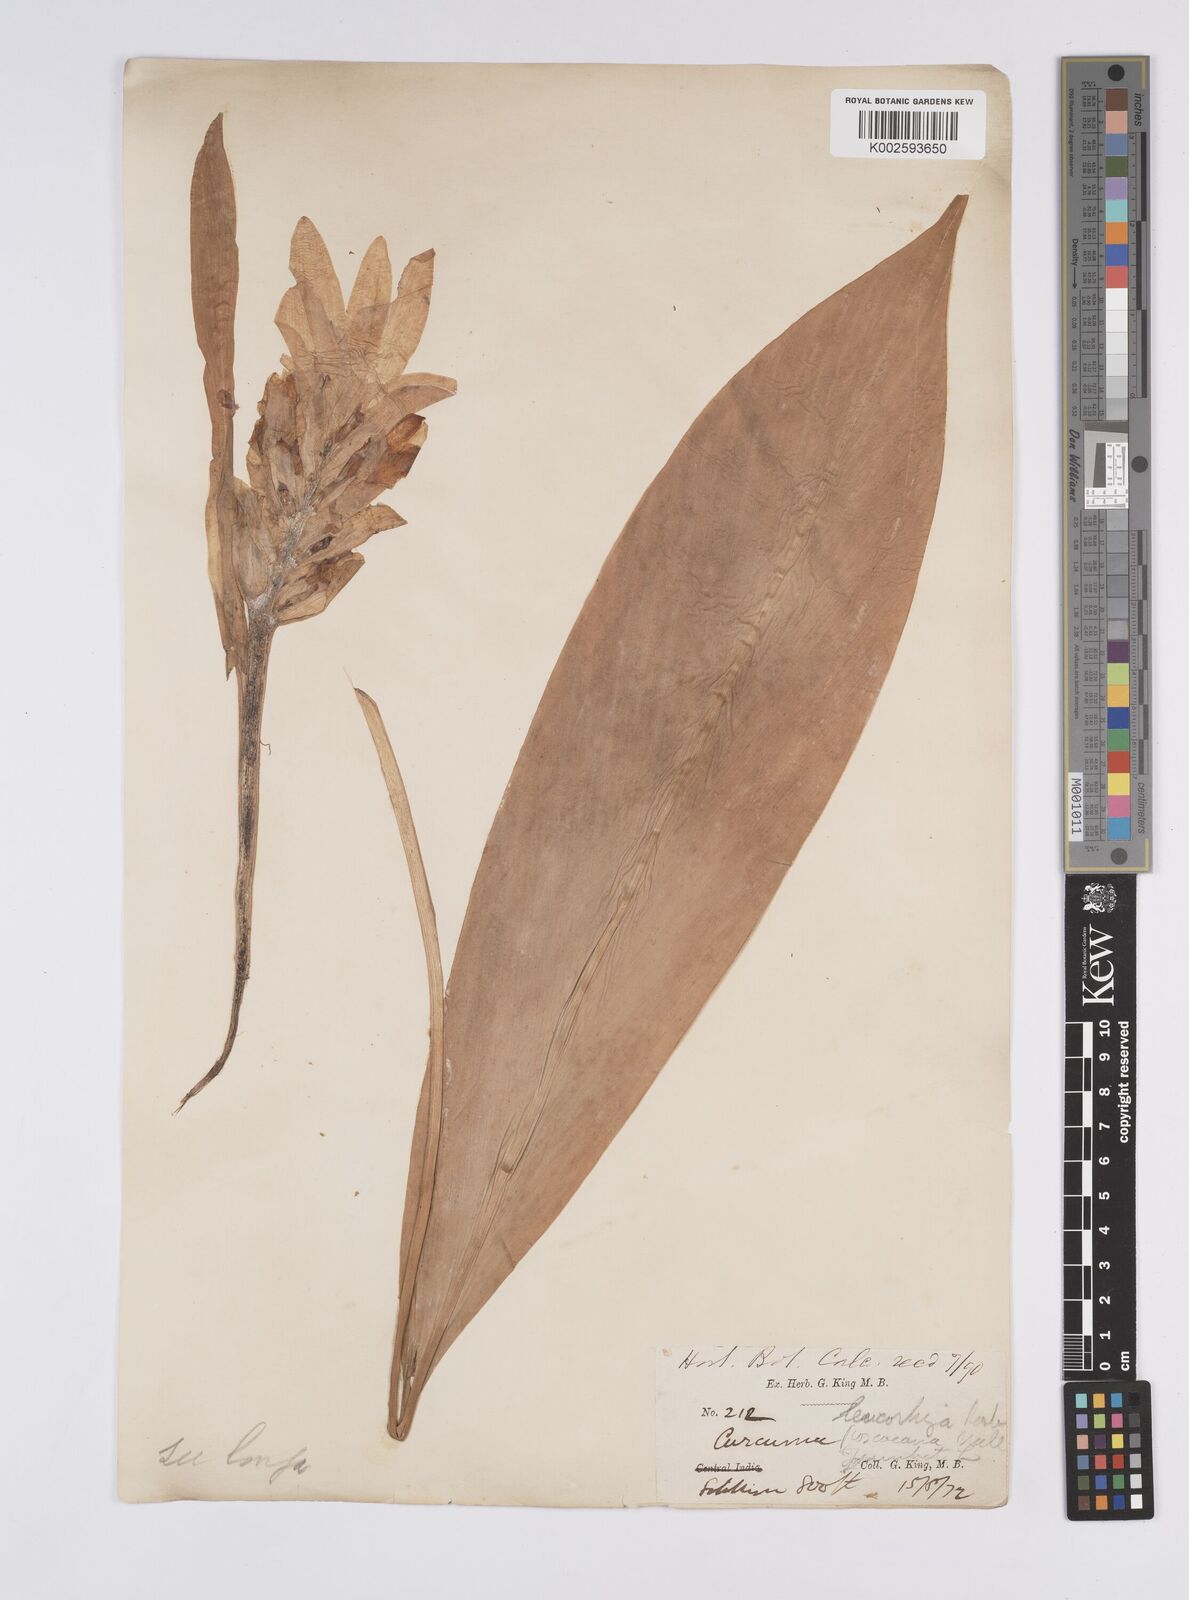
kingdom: Plantae
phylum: Tracheophyta
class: Liliopsida
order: Zingiberales
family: Zingiberaceae
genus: Curcuma
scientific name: Curcuma longa
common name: Turmeric
